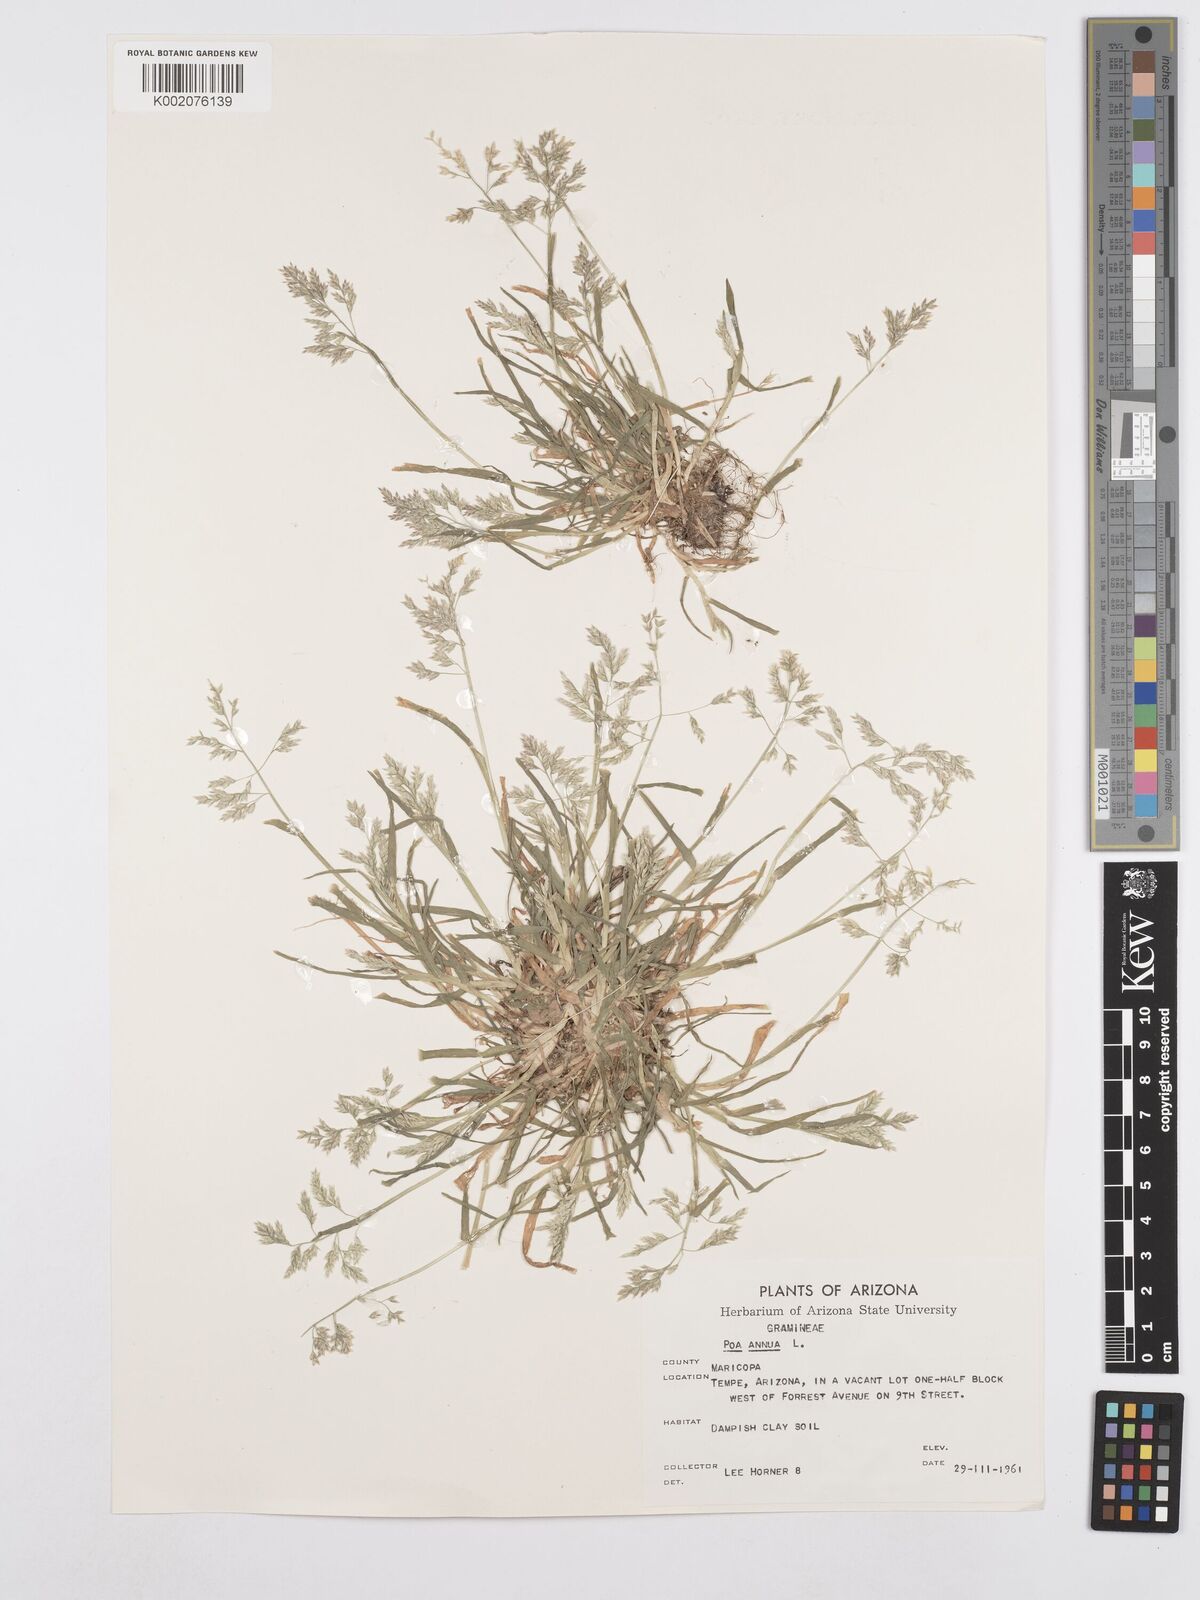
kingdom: Plantae
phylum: Tracheophyta
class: Liliopsida
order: Poales
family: Poaceae
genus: Poa
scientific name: Poa annua
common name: Annual bluegrass
